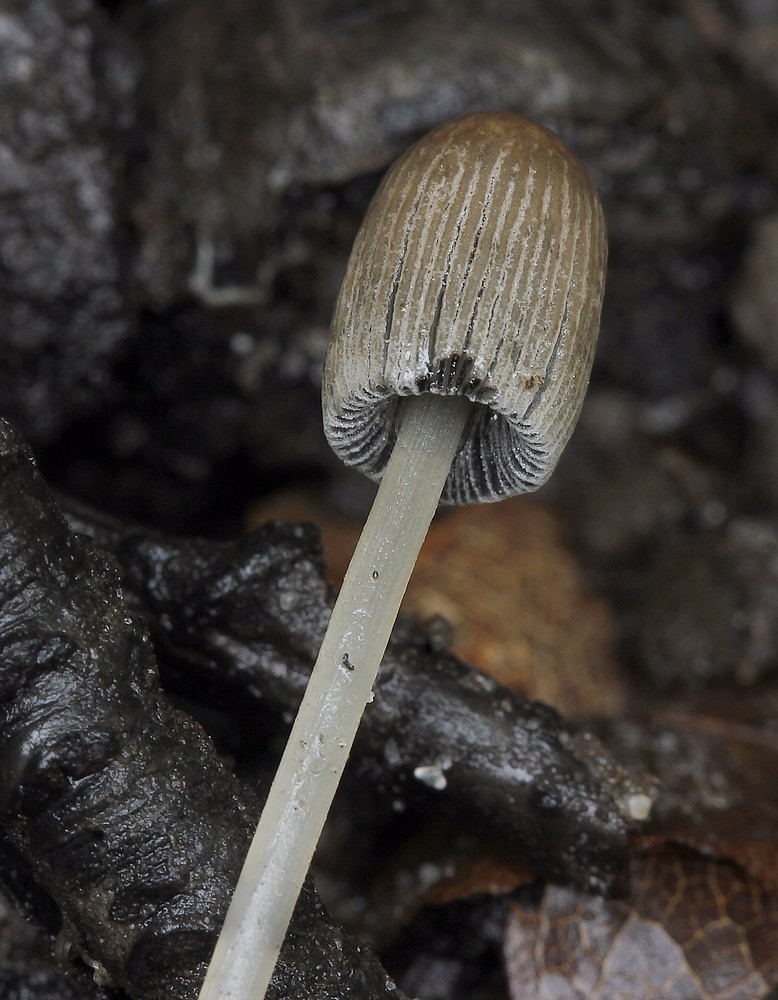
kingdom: Fungi
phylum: Basidiomycota
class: Agaricomycetes
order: Agaricales
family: Psathyrellaceae
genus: Parasola
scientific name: Parasola kuehneri
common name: skygge-hjulhat
